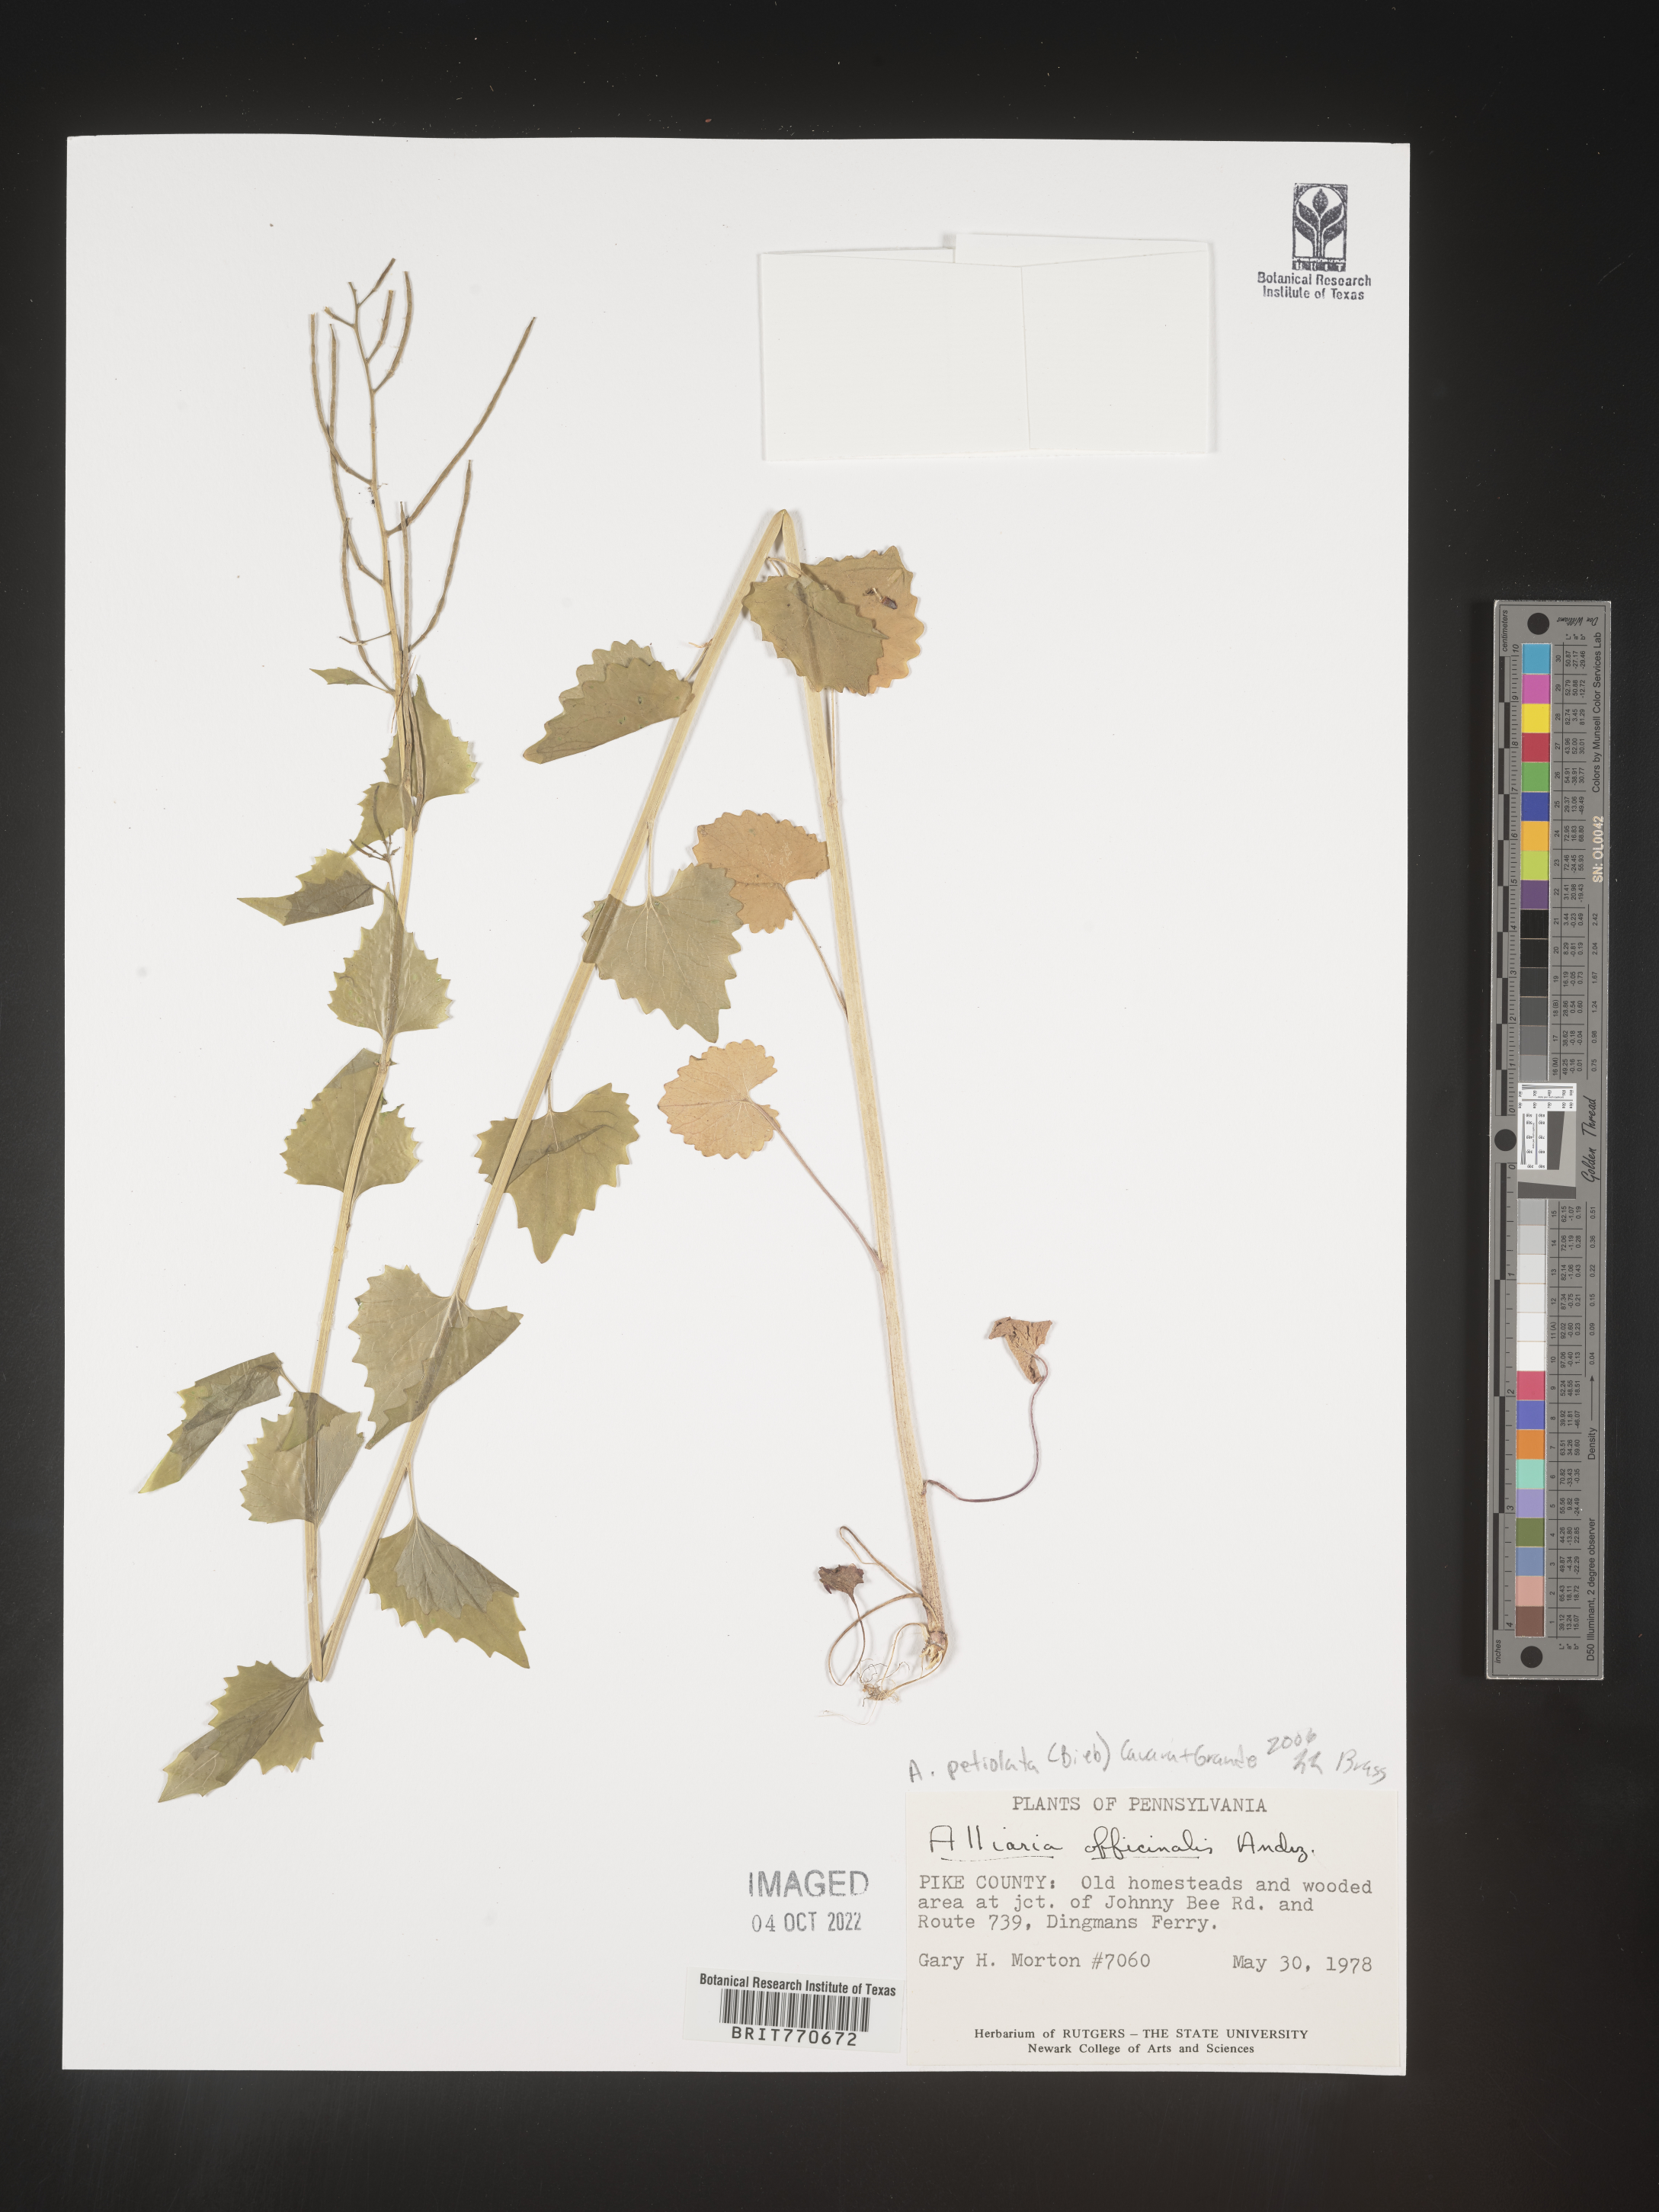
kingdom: Plantae
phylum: Tracheophyta
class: Magnoliopsida
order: Brassicales
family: Brassicaceae
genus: Alliaria
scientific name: Alliaria
